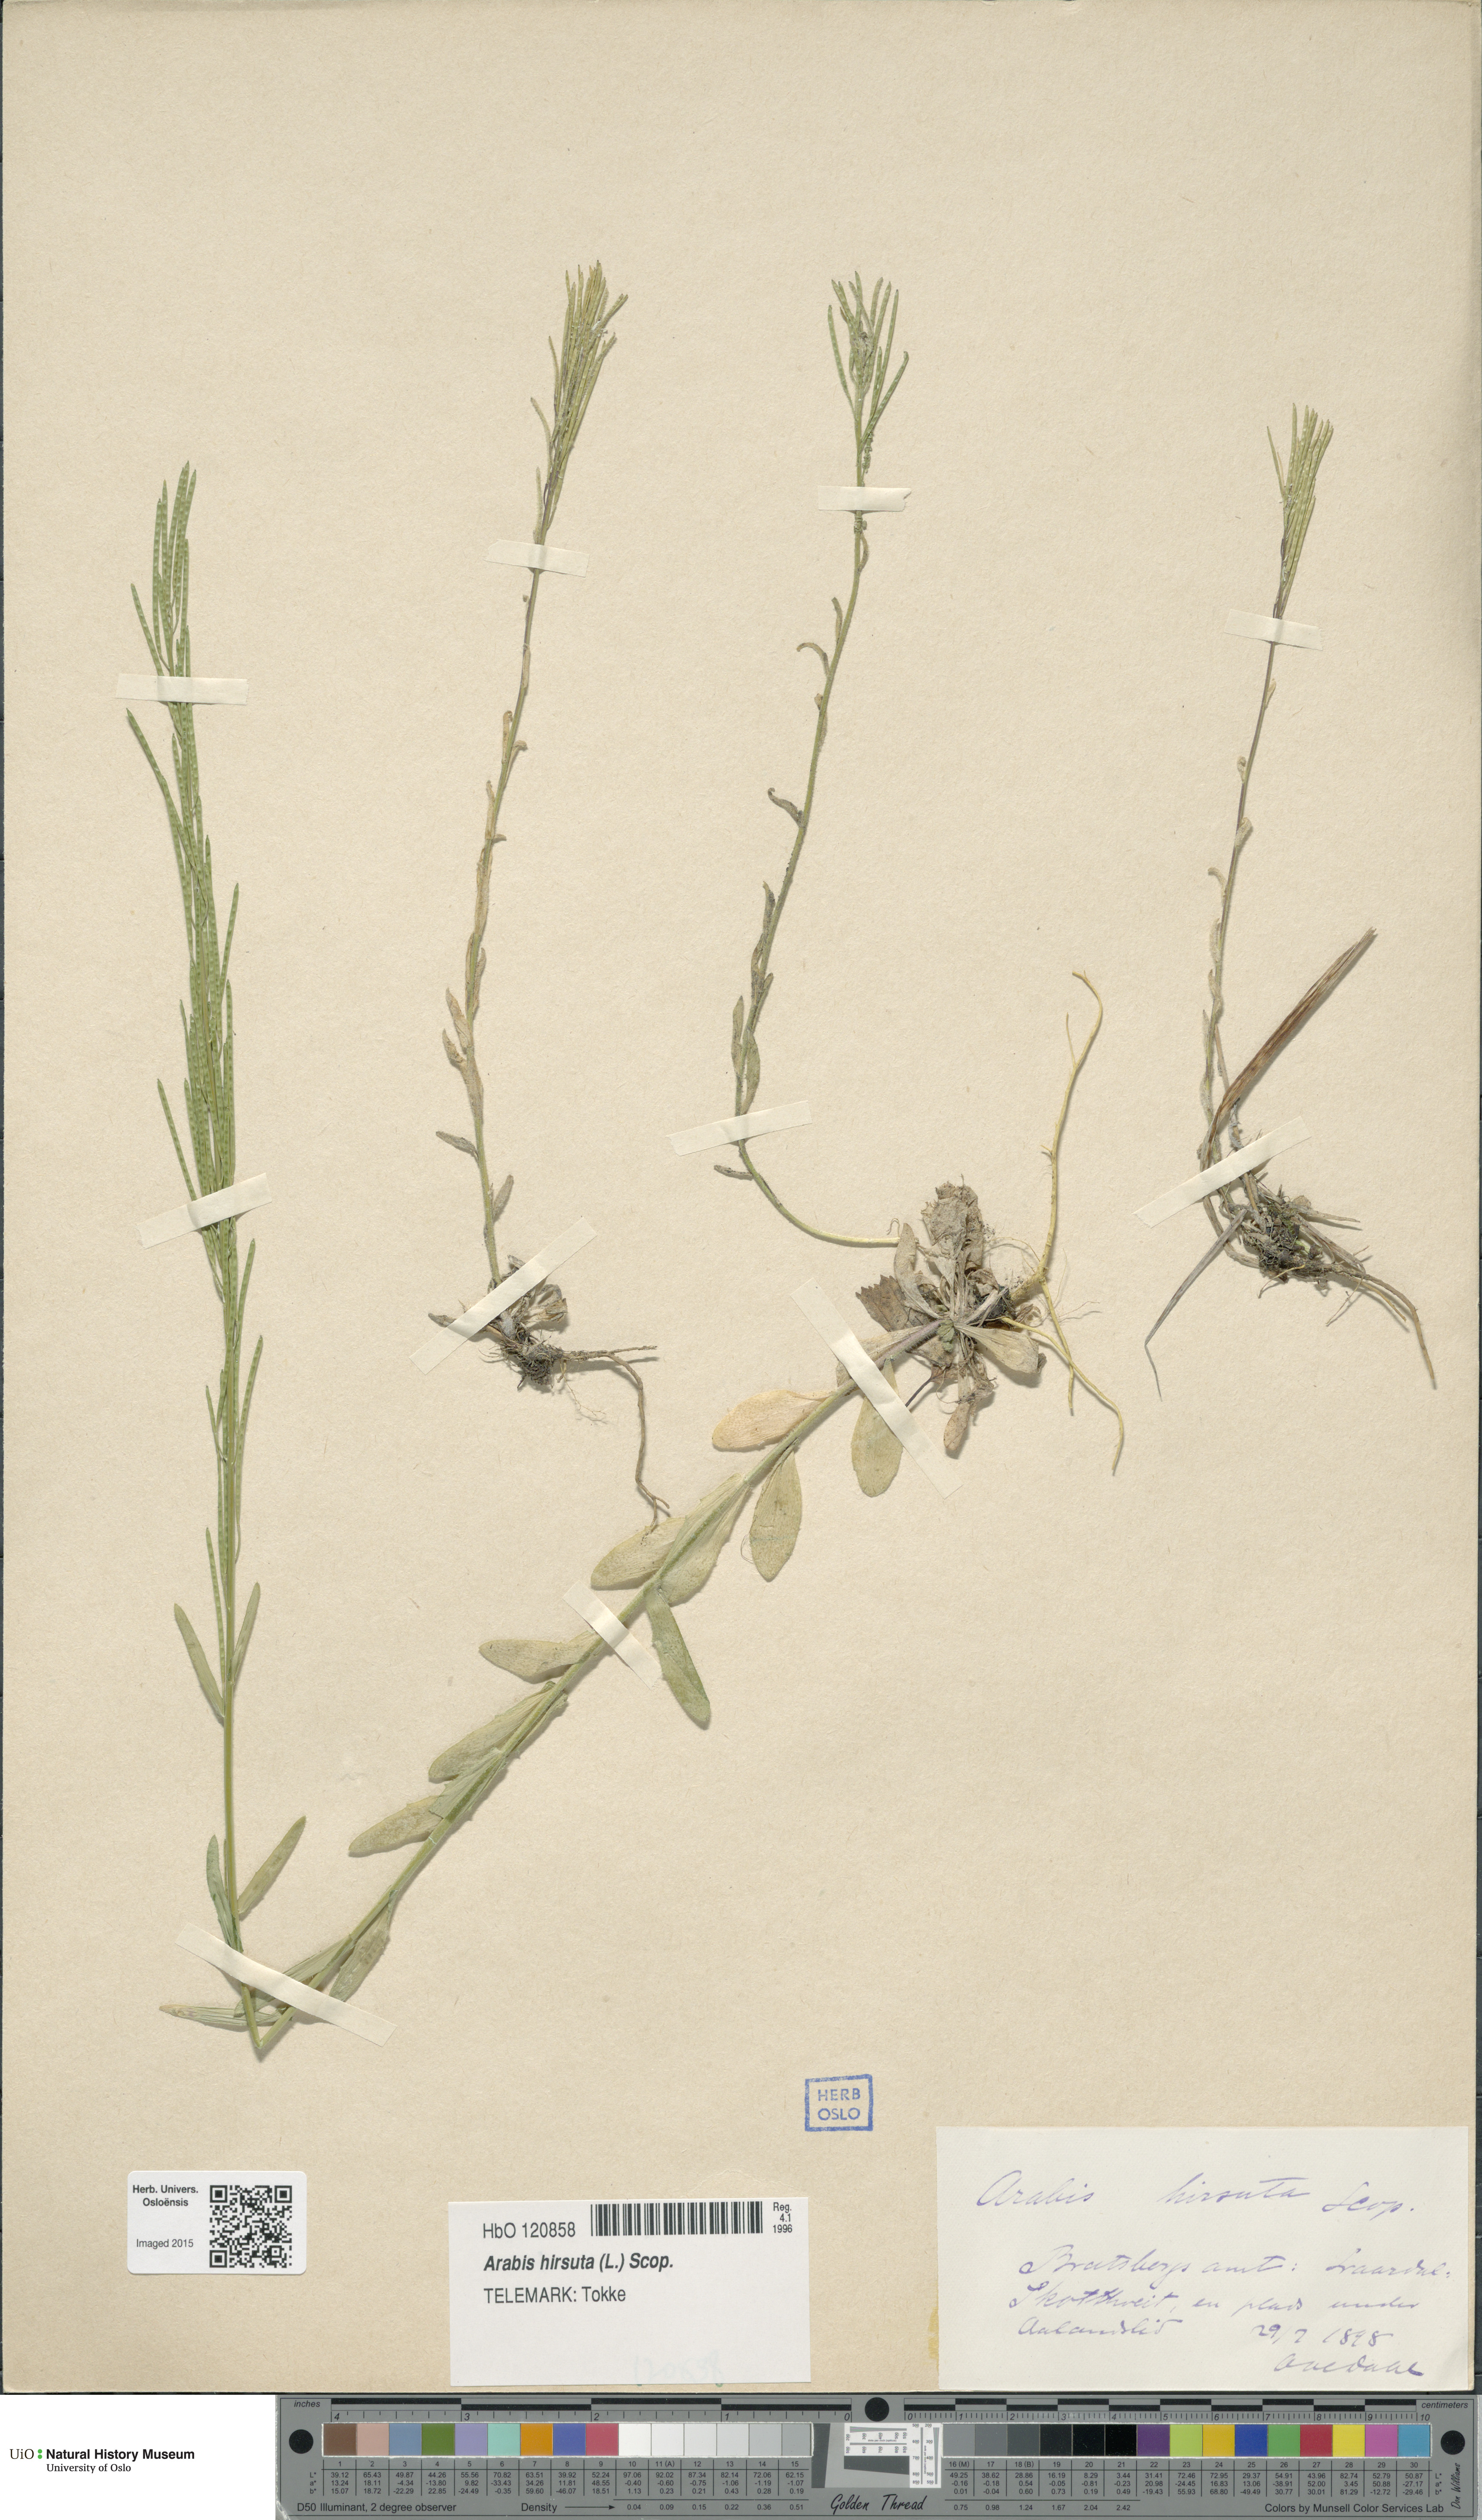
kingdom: Plantae
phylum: Tracheophyta
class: Magnoliopsida
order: Brassicales
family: Brassicaceae
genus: Arabis
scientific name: Arabis hirsuta
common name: Hairy rock-cress
